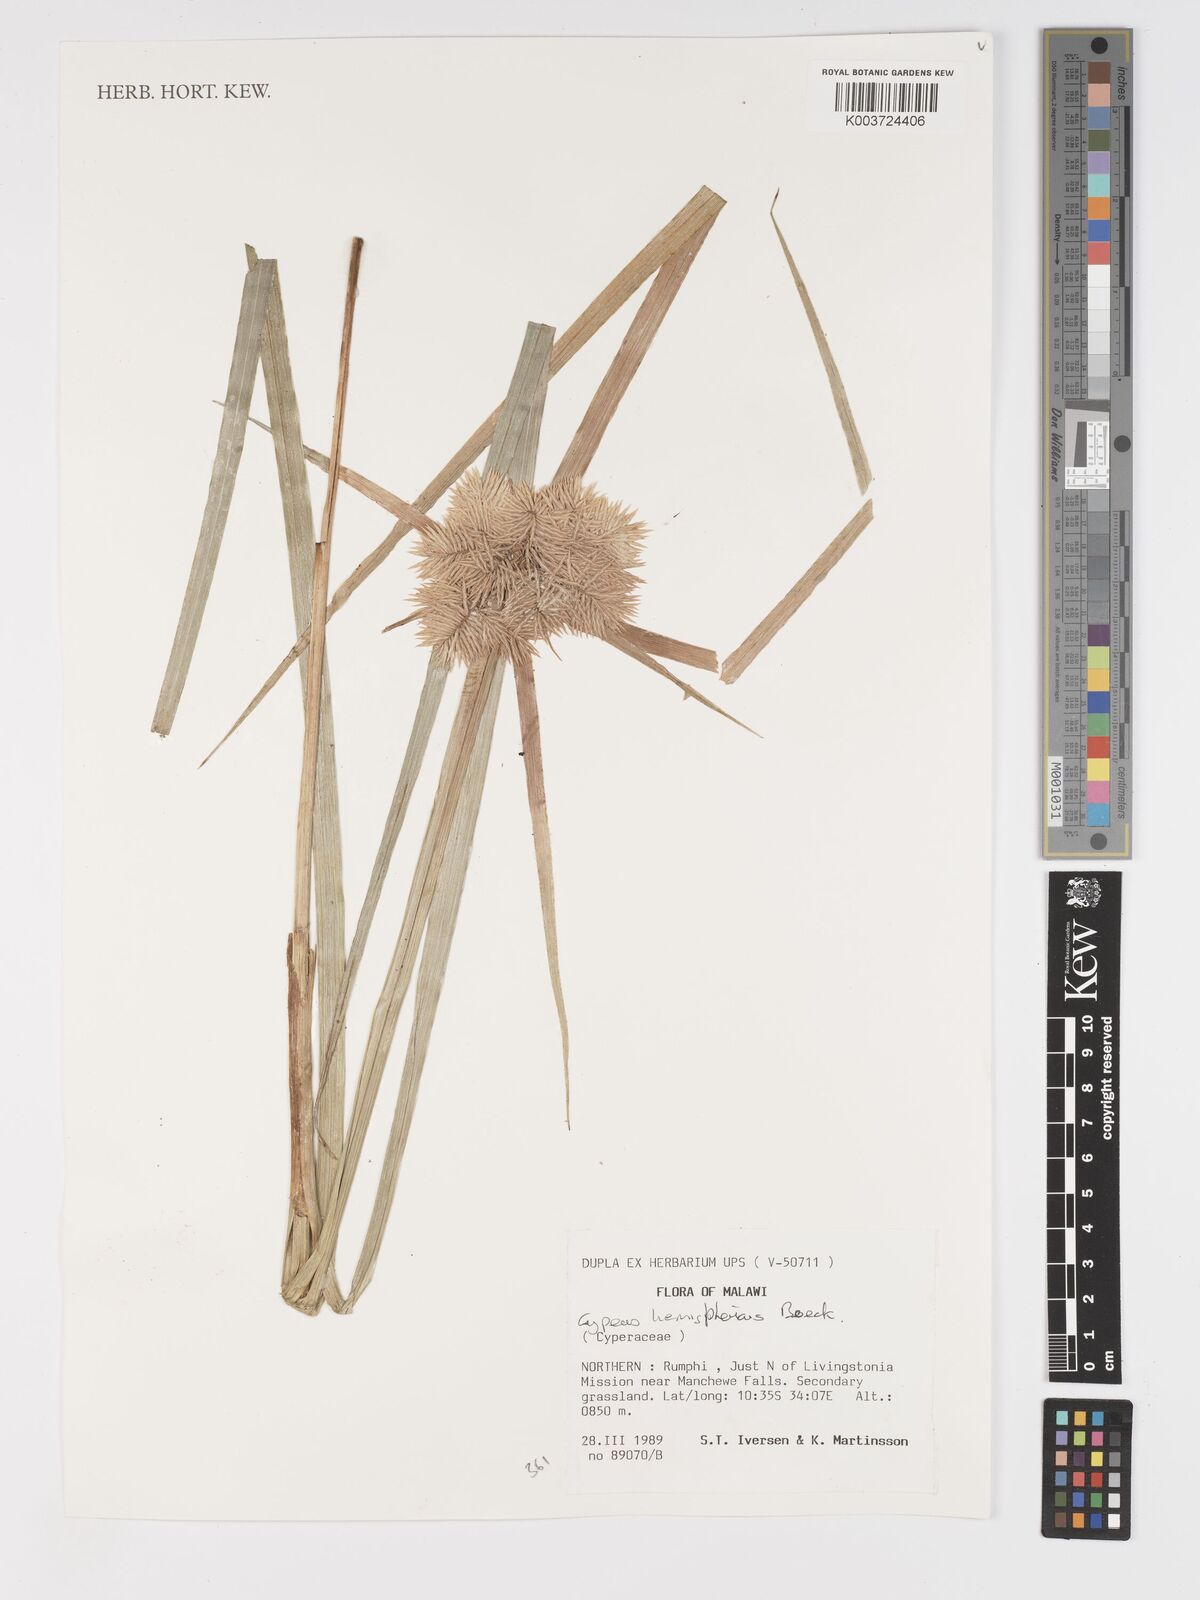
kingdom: Plantae
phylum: Tracheophyta
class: Liliopsida
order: Poales
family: Cyperaceae
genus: Cyperus
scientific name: Cyperus hemisphaericus
